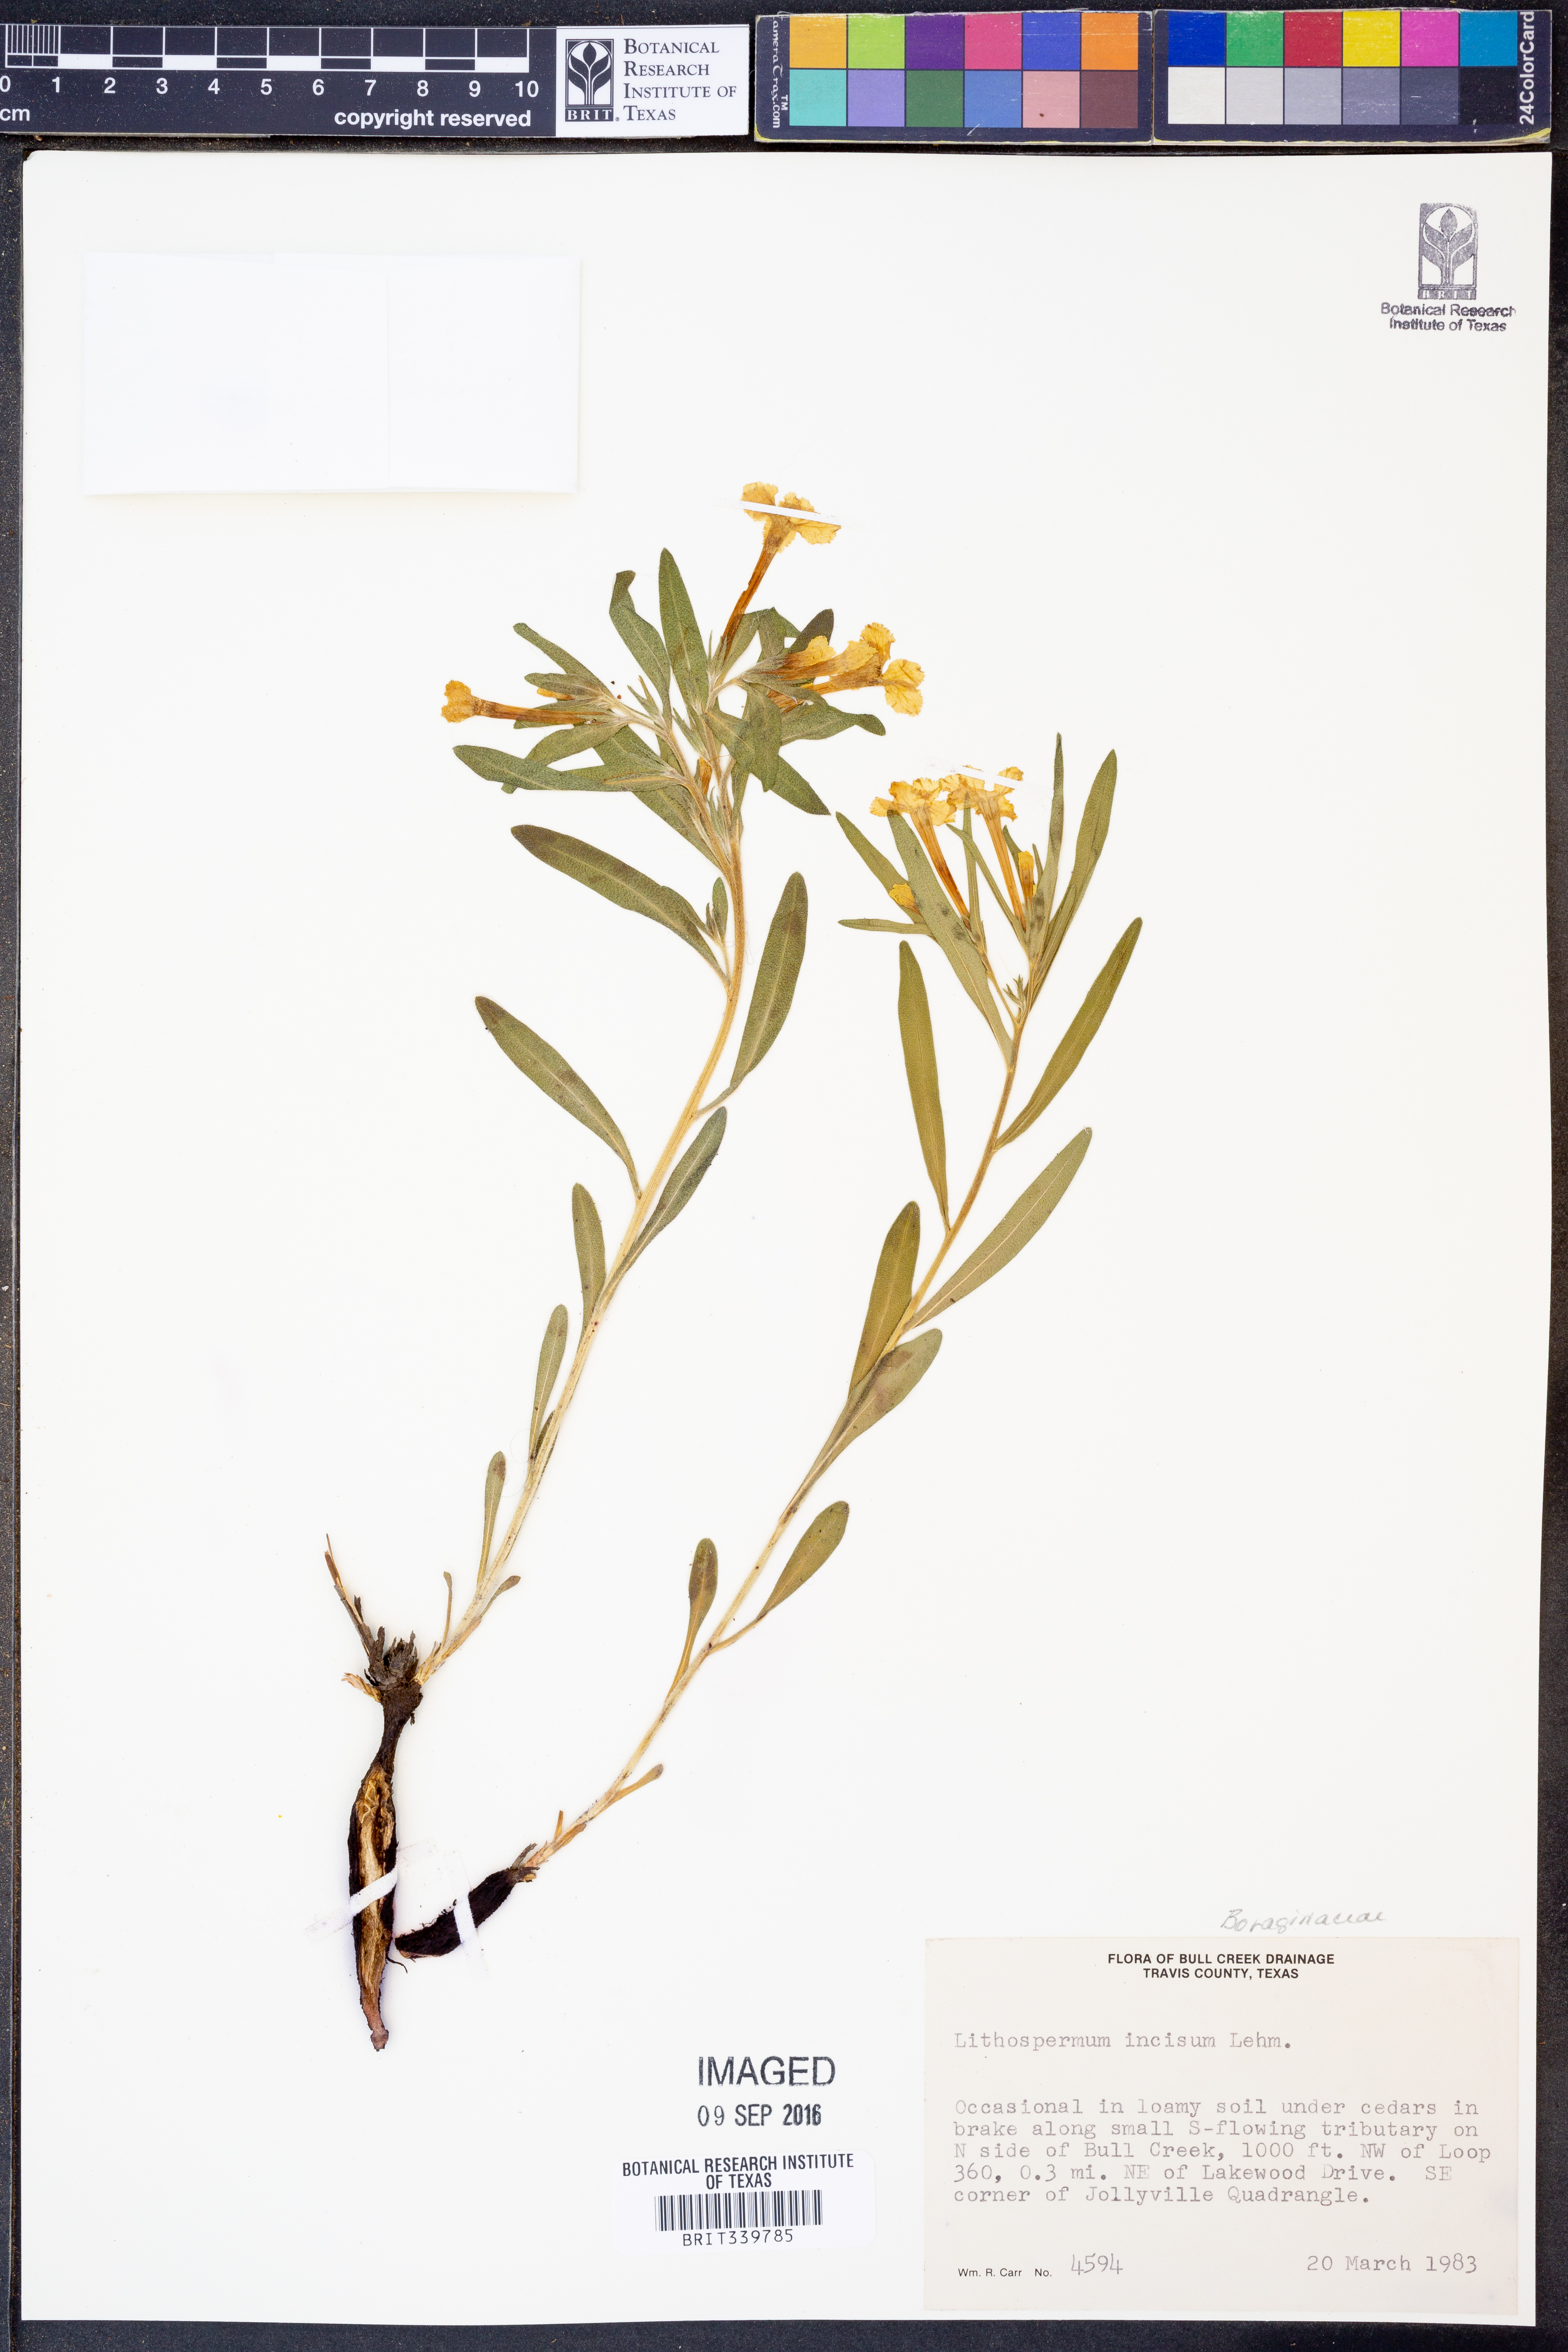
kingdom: Plantae
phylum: Tracheophyta
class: Magnoliopsida
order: Boraginales
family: Boraginaceae
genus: Lithospermum
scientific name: Lithospermum incisum
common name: Fringed gromwell
